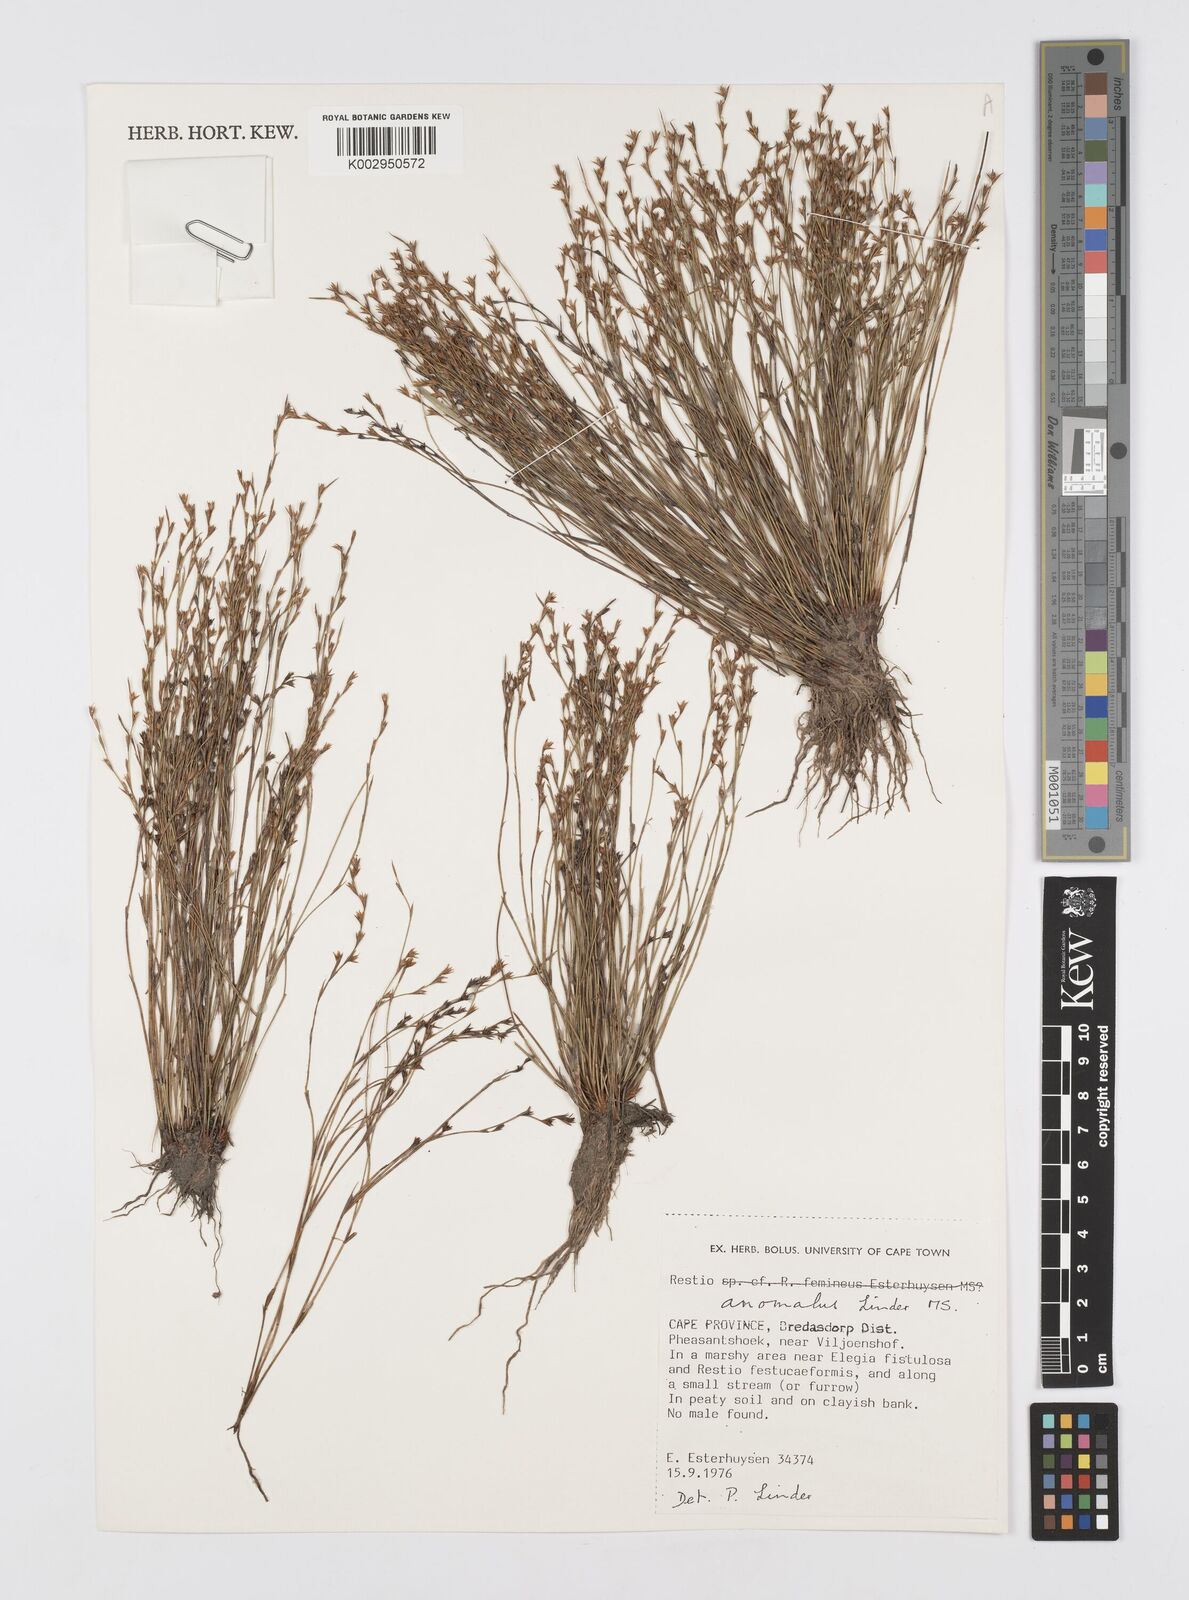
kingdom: Plantae
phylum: Tracheophyta
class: Liliopsida
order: Poales
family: Restionaceae
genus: Restio
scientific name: Restio anomalus
